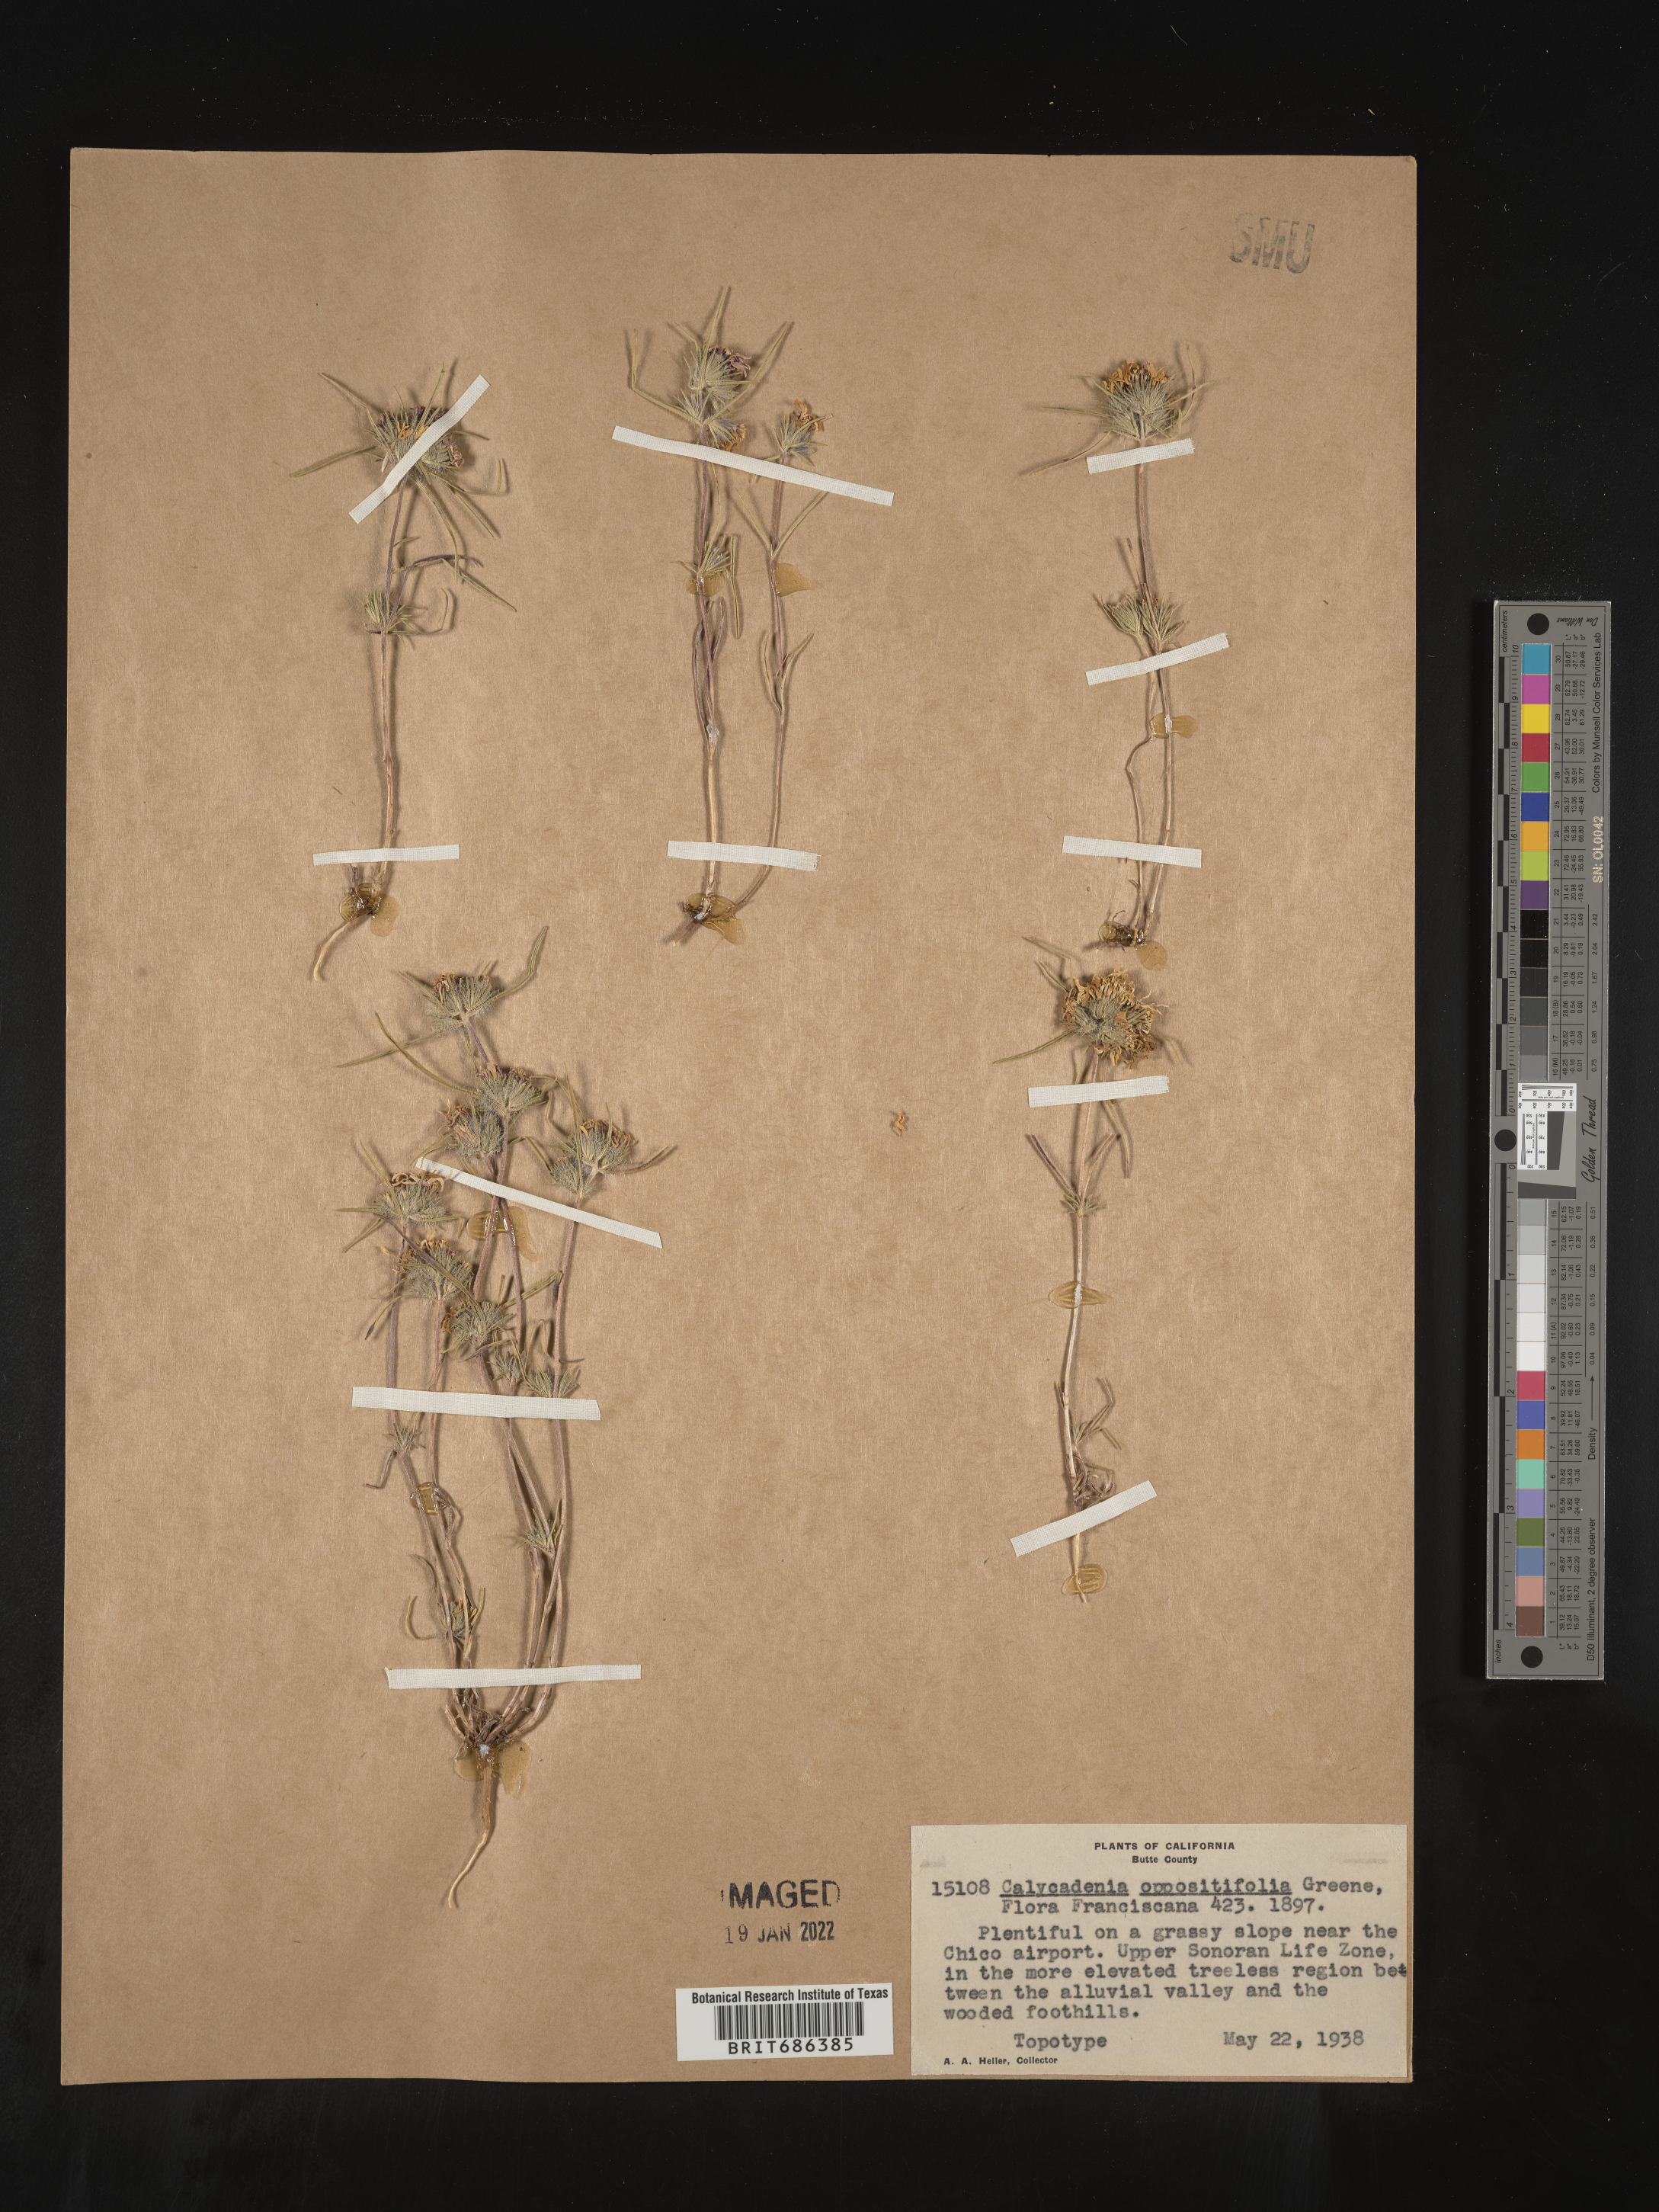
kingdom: Plantae
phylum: Tracheophyta
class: Magnoliopsida
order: Asterales
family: Asteraceae
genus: Calycadenia
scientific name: Calycadenia
